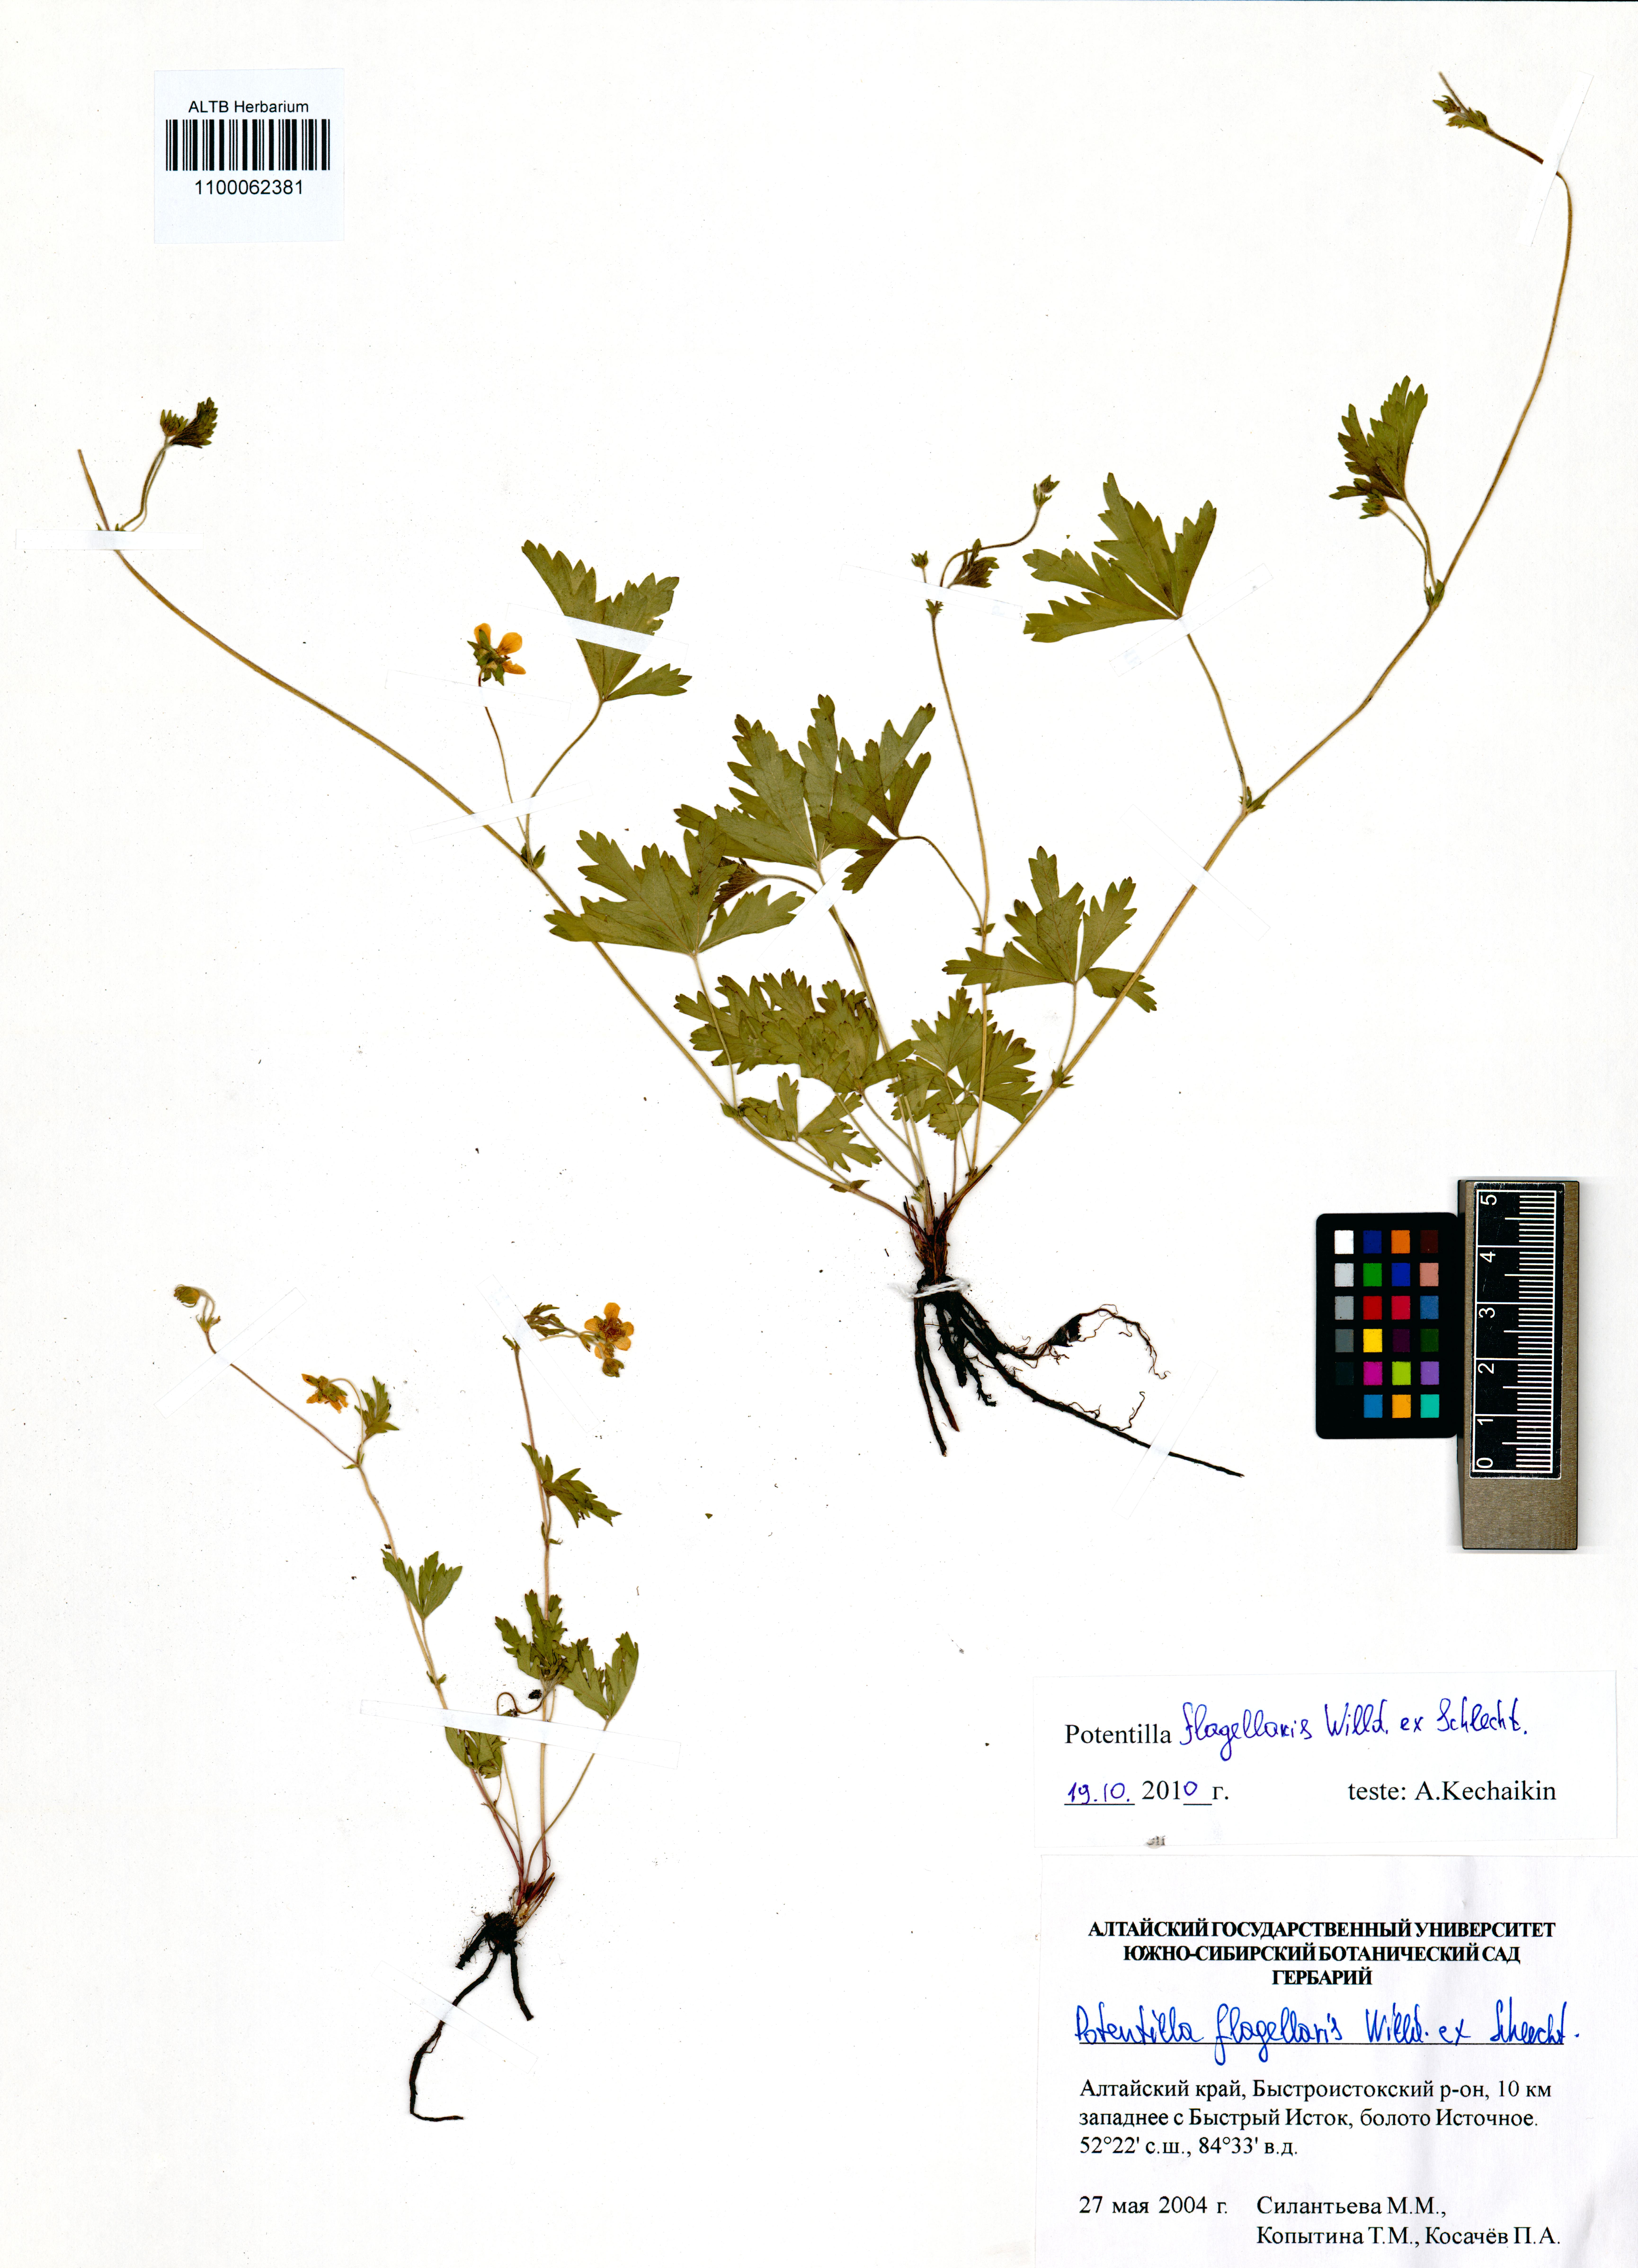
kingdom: Plantae
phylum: Tracheophyta
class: Magnoliopsida
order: Rosales
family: Rosaceae
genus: Potentilla
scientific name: Potentilla flagellaris
